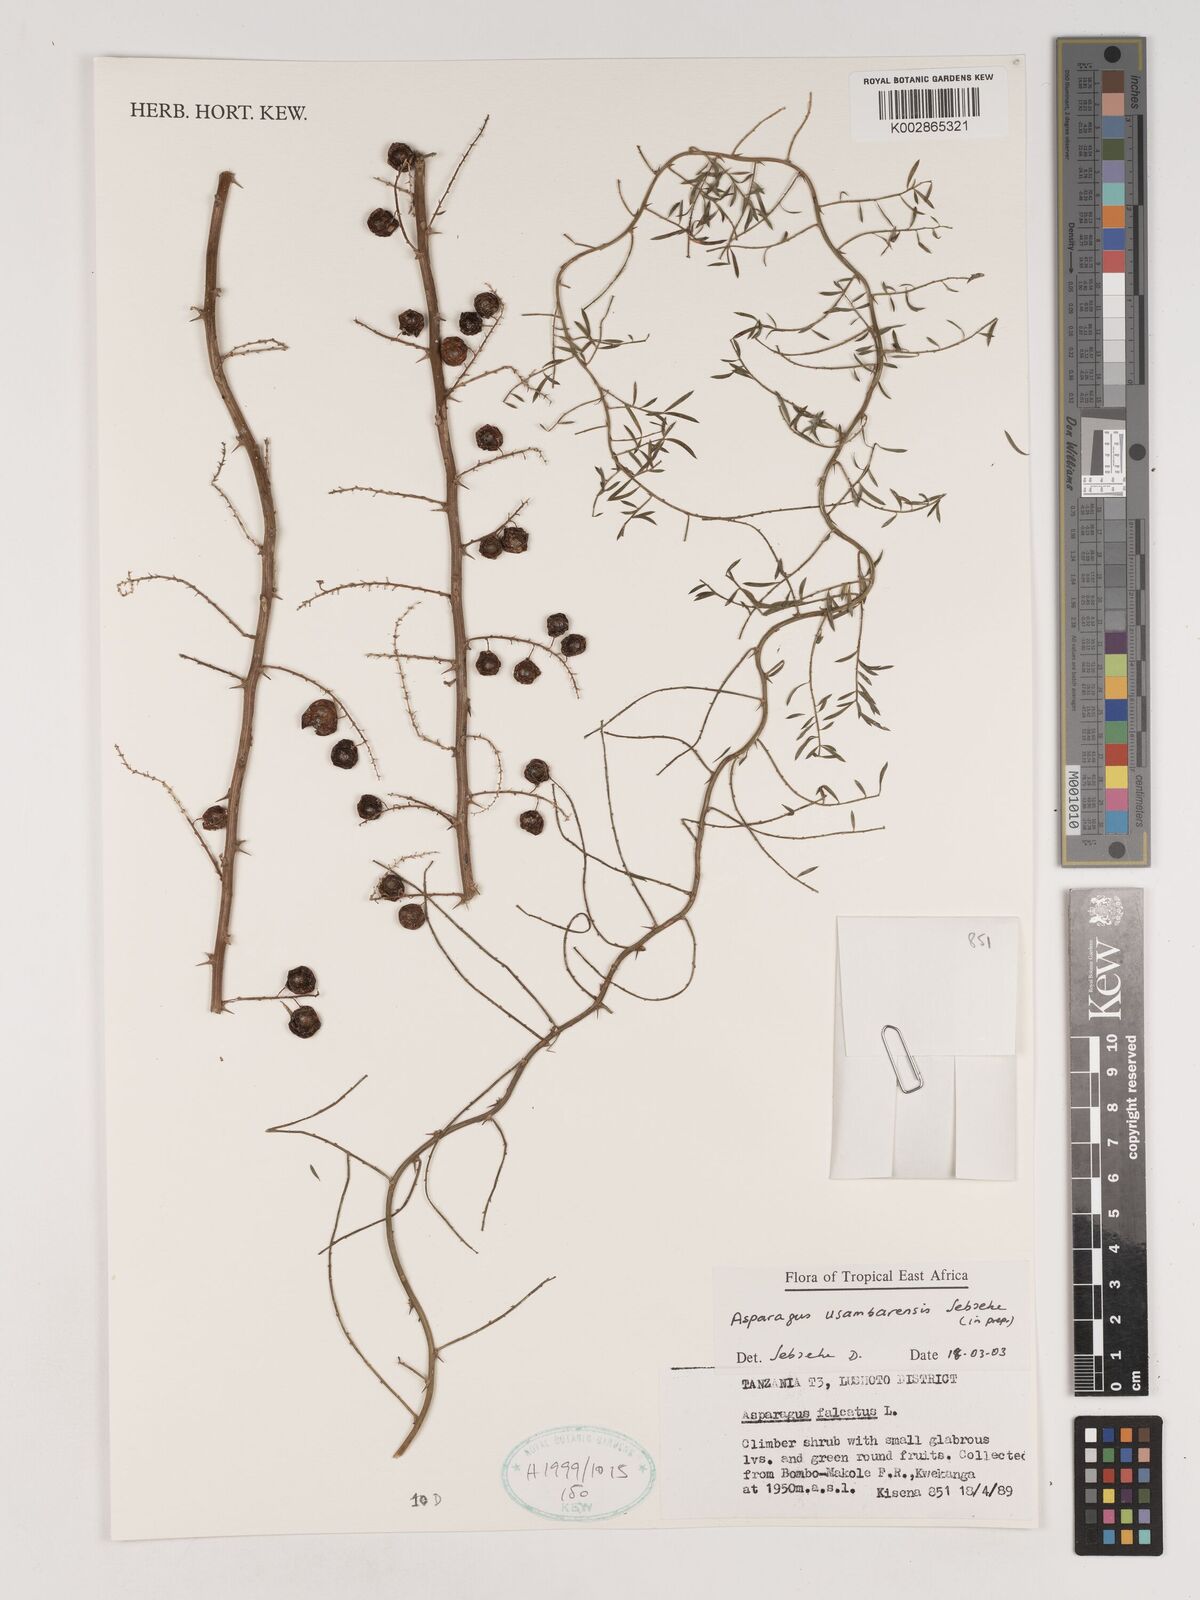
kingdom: Plantae
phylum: Tracheophyta
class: Liliopsida
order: Asparagales
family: Asparagaceae
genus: Asparagus
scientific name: Asparagus usambarensis
